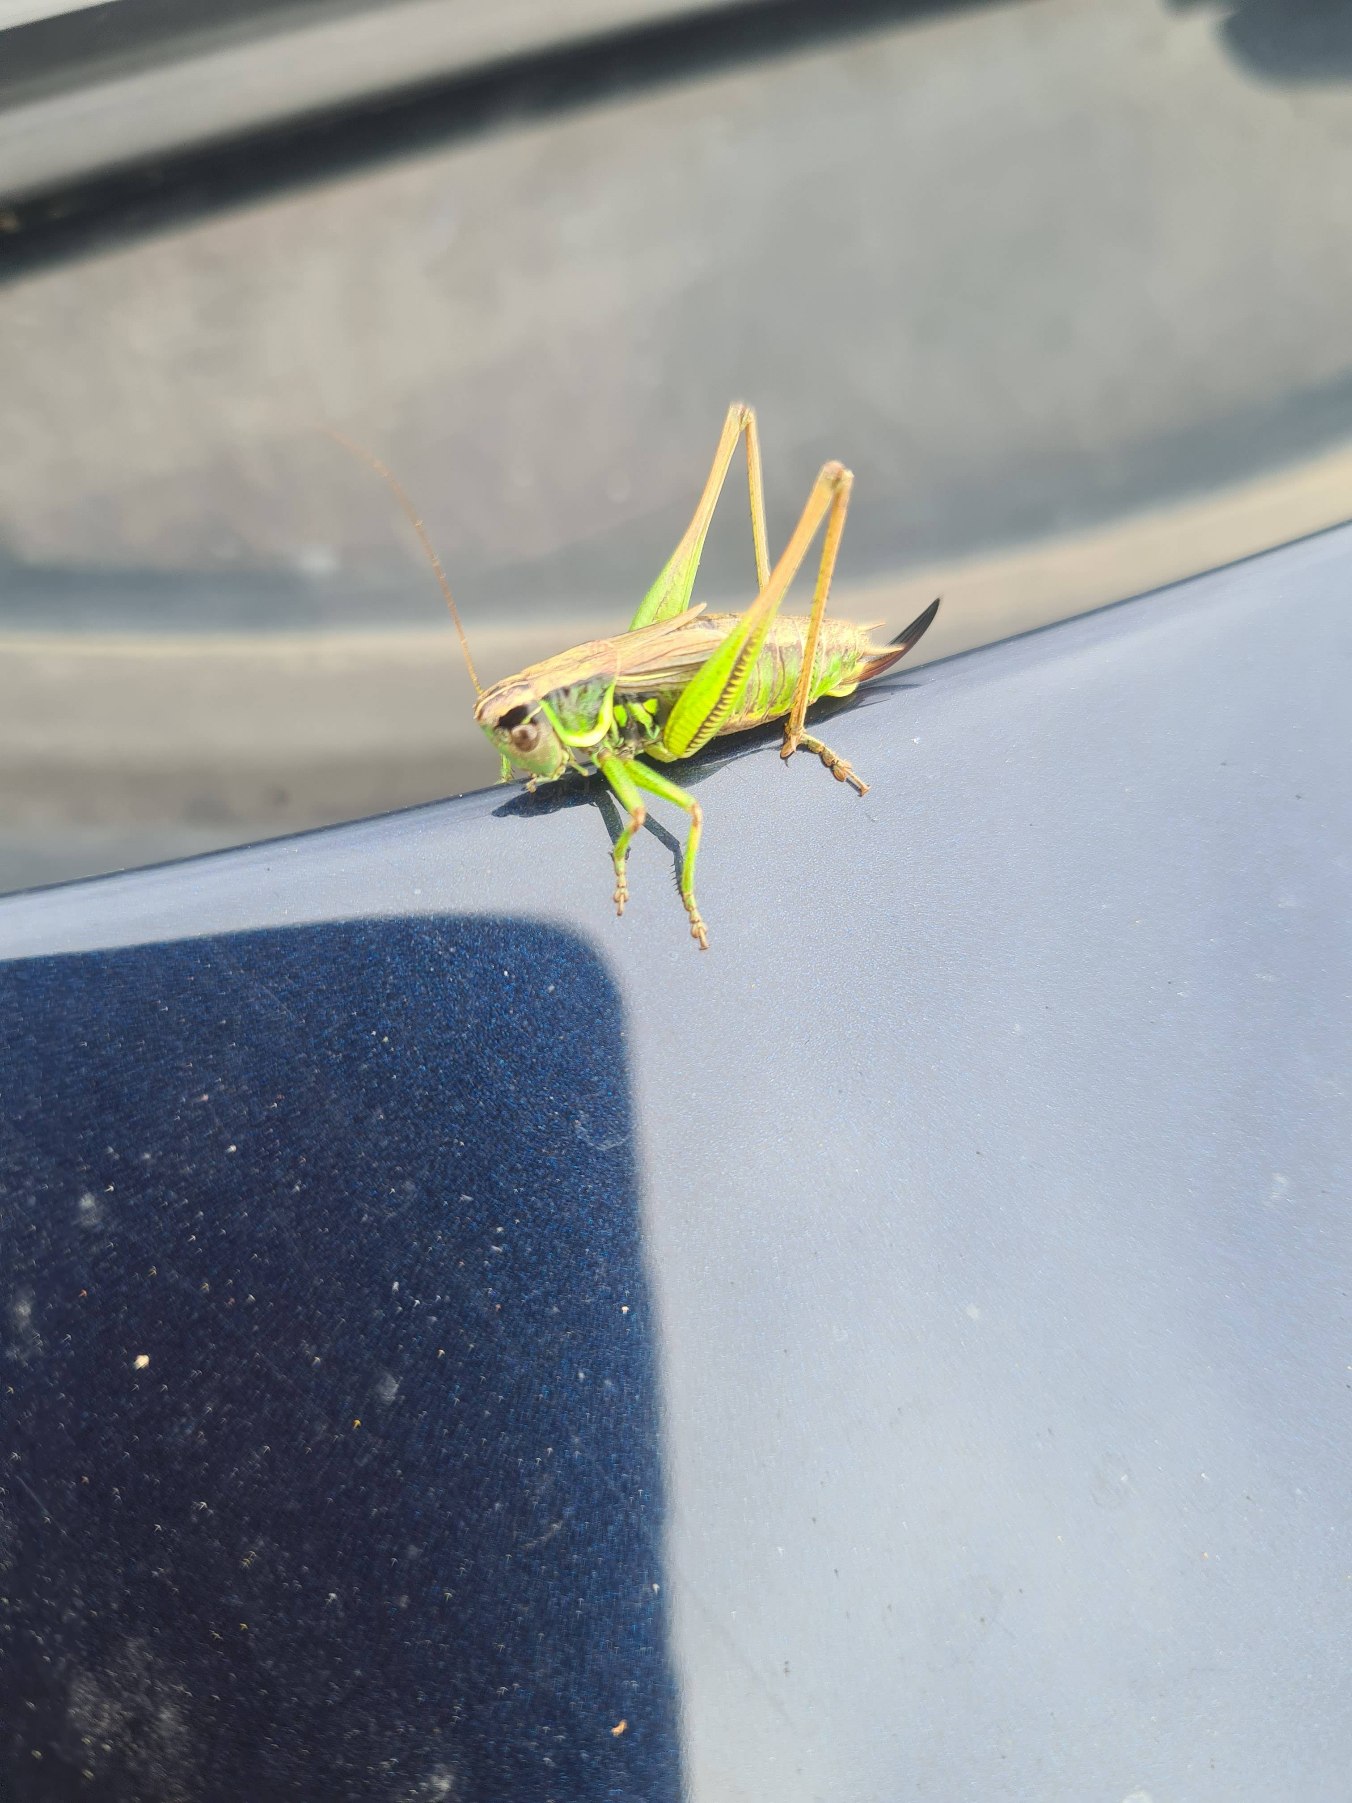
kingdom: Animalia
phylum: Arthropoda
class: Insecta
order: Orthoptera
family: Tettigoniidae
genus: Roeseliana
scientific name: Roeseliana roeselii
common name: Cikadegræshoppe
